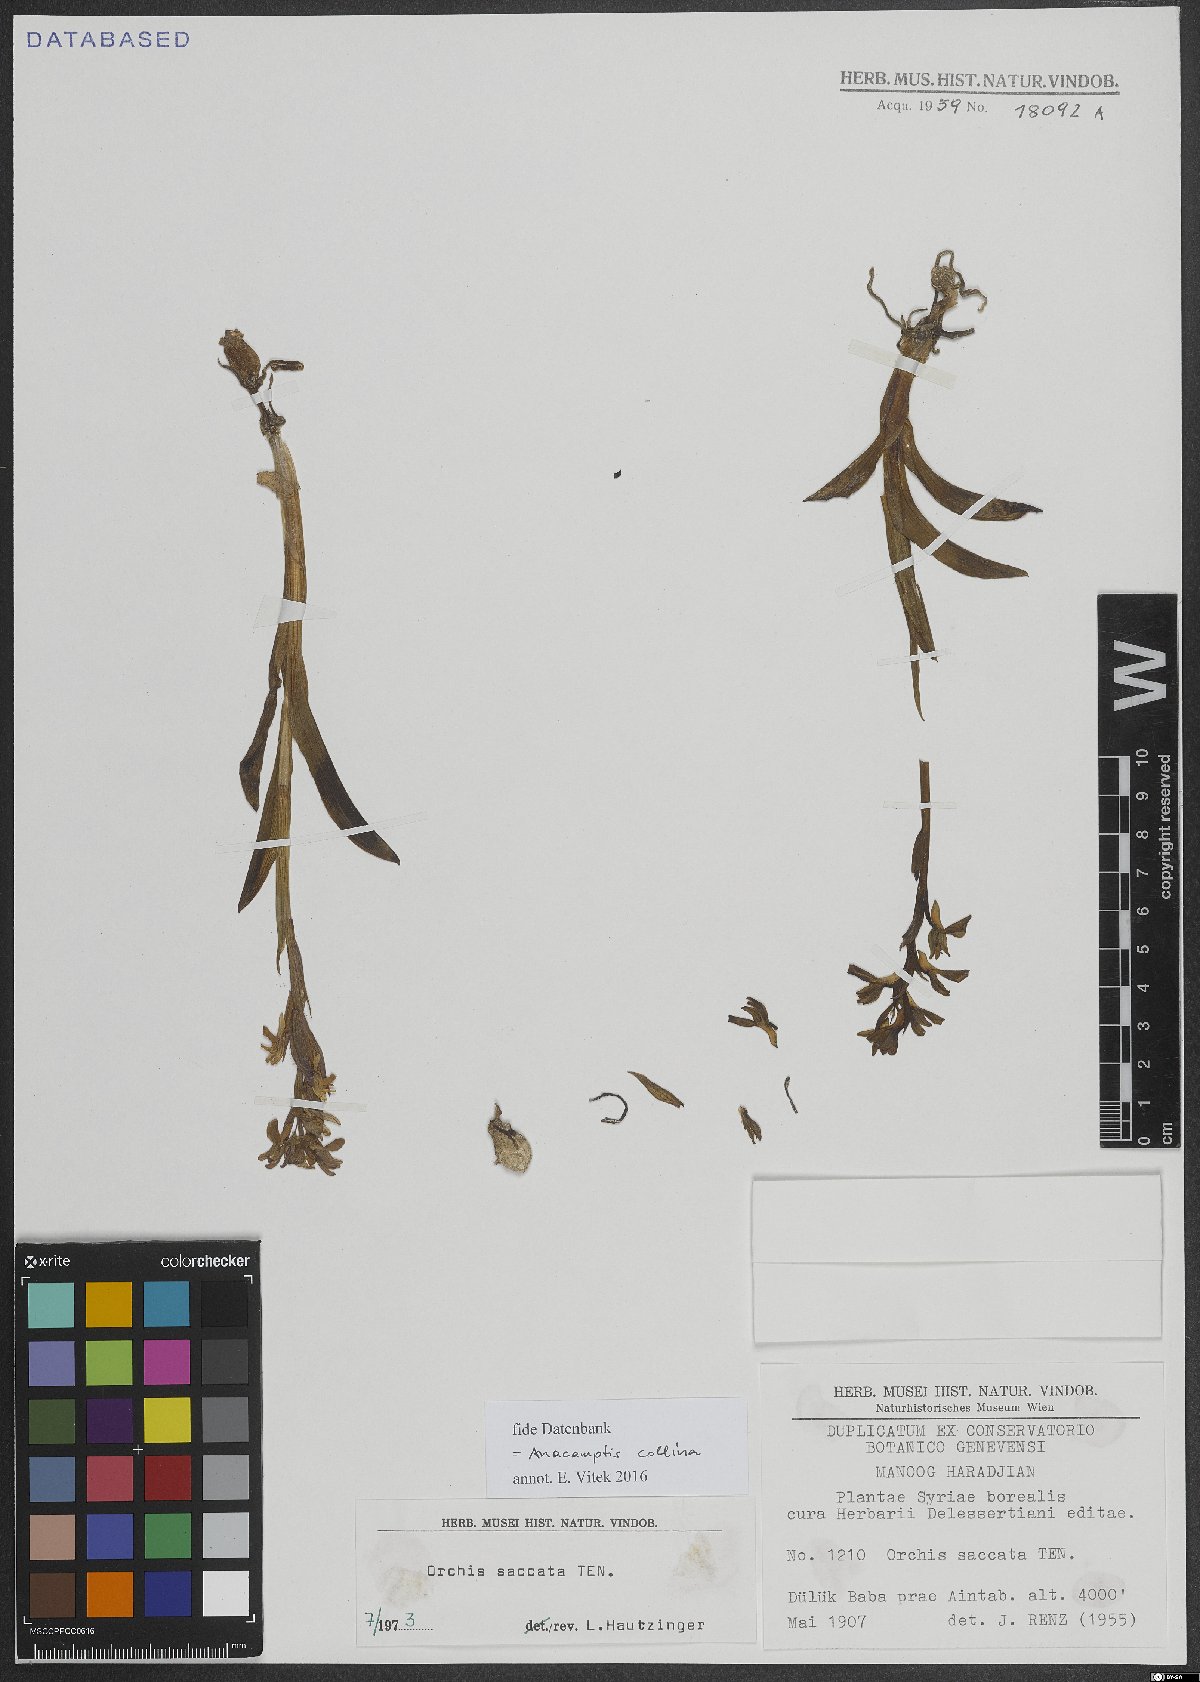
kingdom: Plantae
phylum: Tracheophyta
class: Liliopsida
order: Asparagales
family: Orchidaceae
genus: Anacamptis
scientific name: Anacamptis collina
